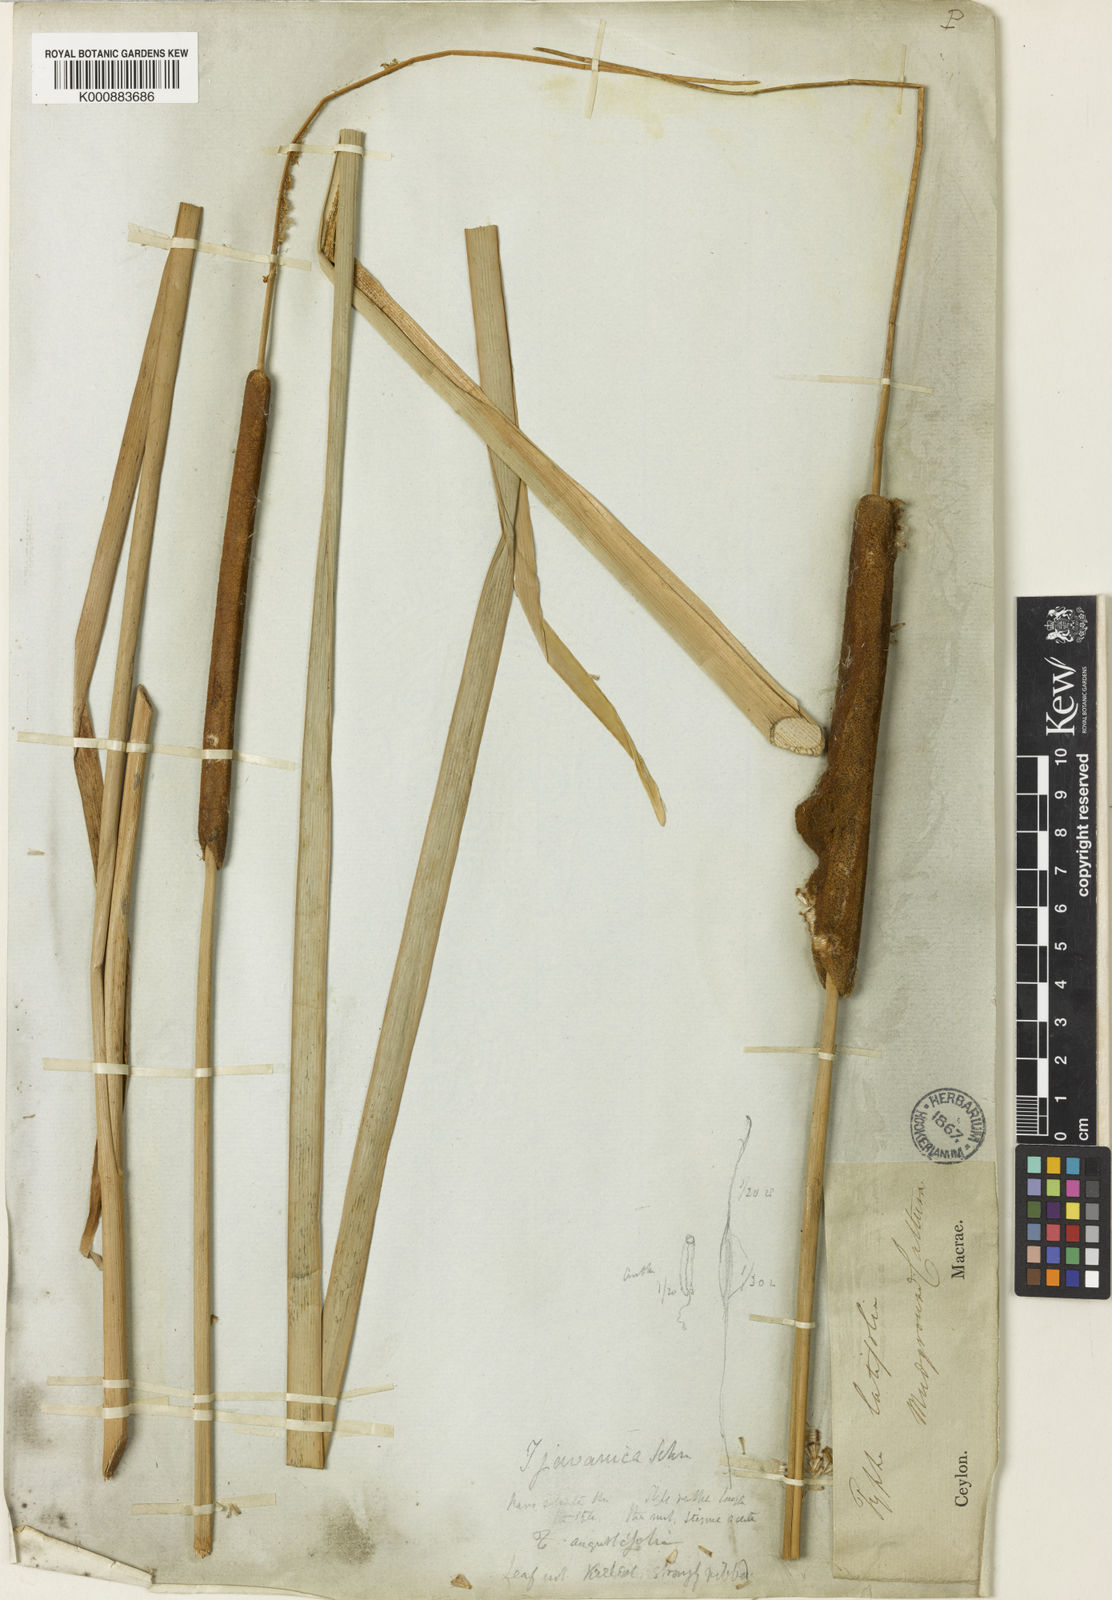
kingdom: Plantae
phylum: Tracheophyta
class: Liliopsida
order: Poales
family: Typhaceae
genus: Typha
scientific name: Typha domingensis
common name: Southern cattail
